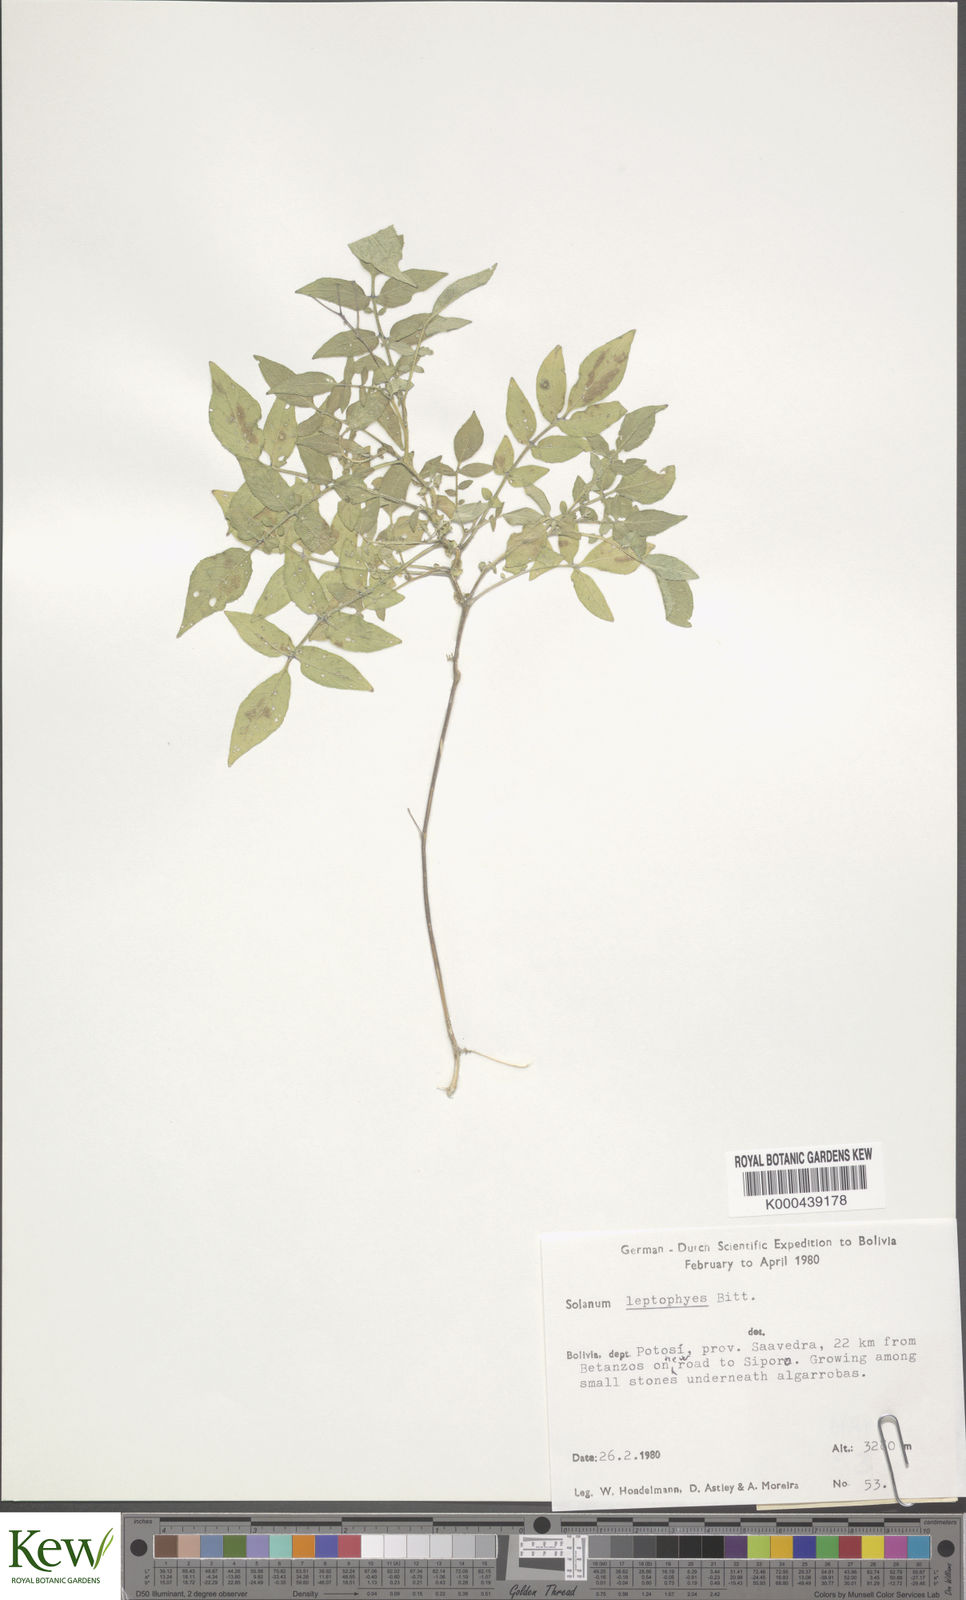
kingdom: Plantae
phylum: Tracheophyta
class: Magnoliopsida
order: Solanales
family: Solanaceae
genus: Solanum
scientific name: Solanum brevicaule
